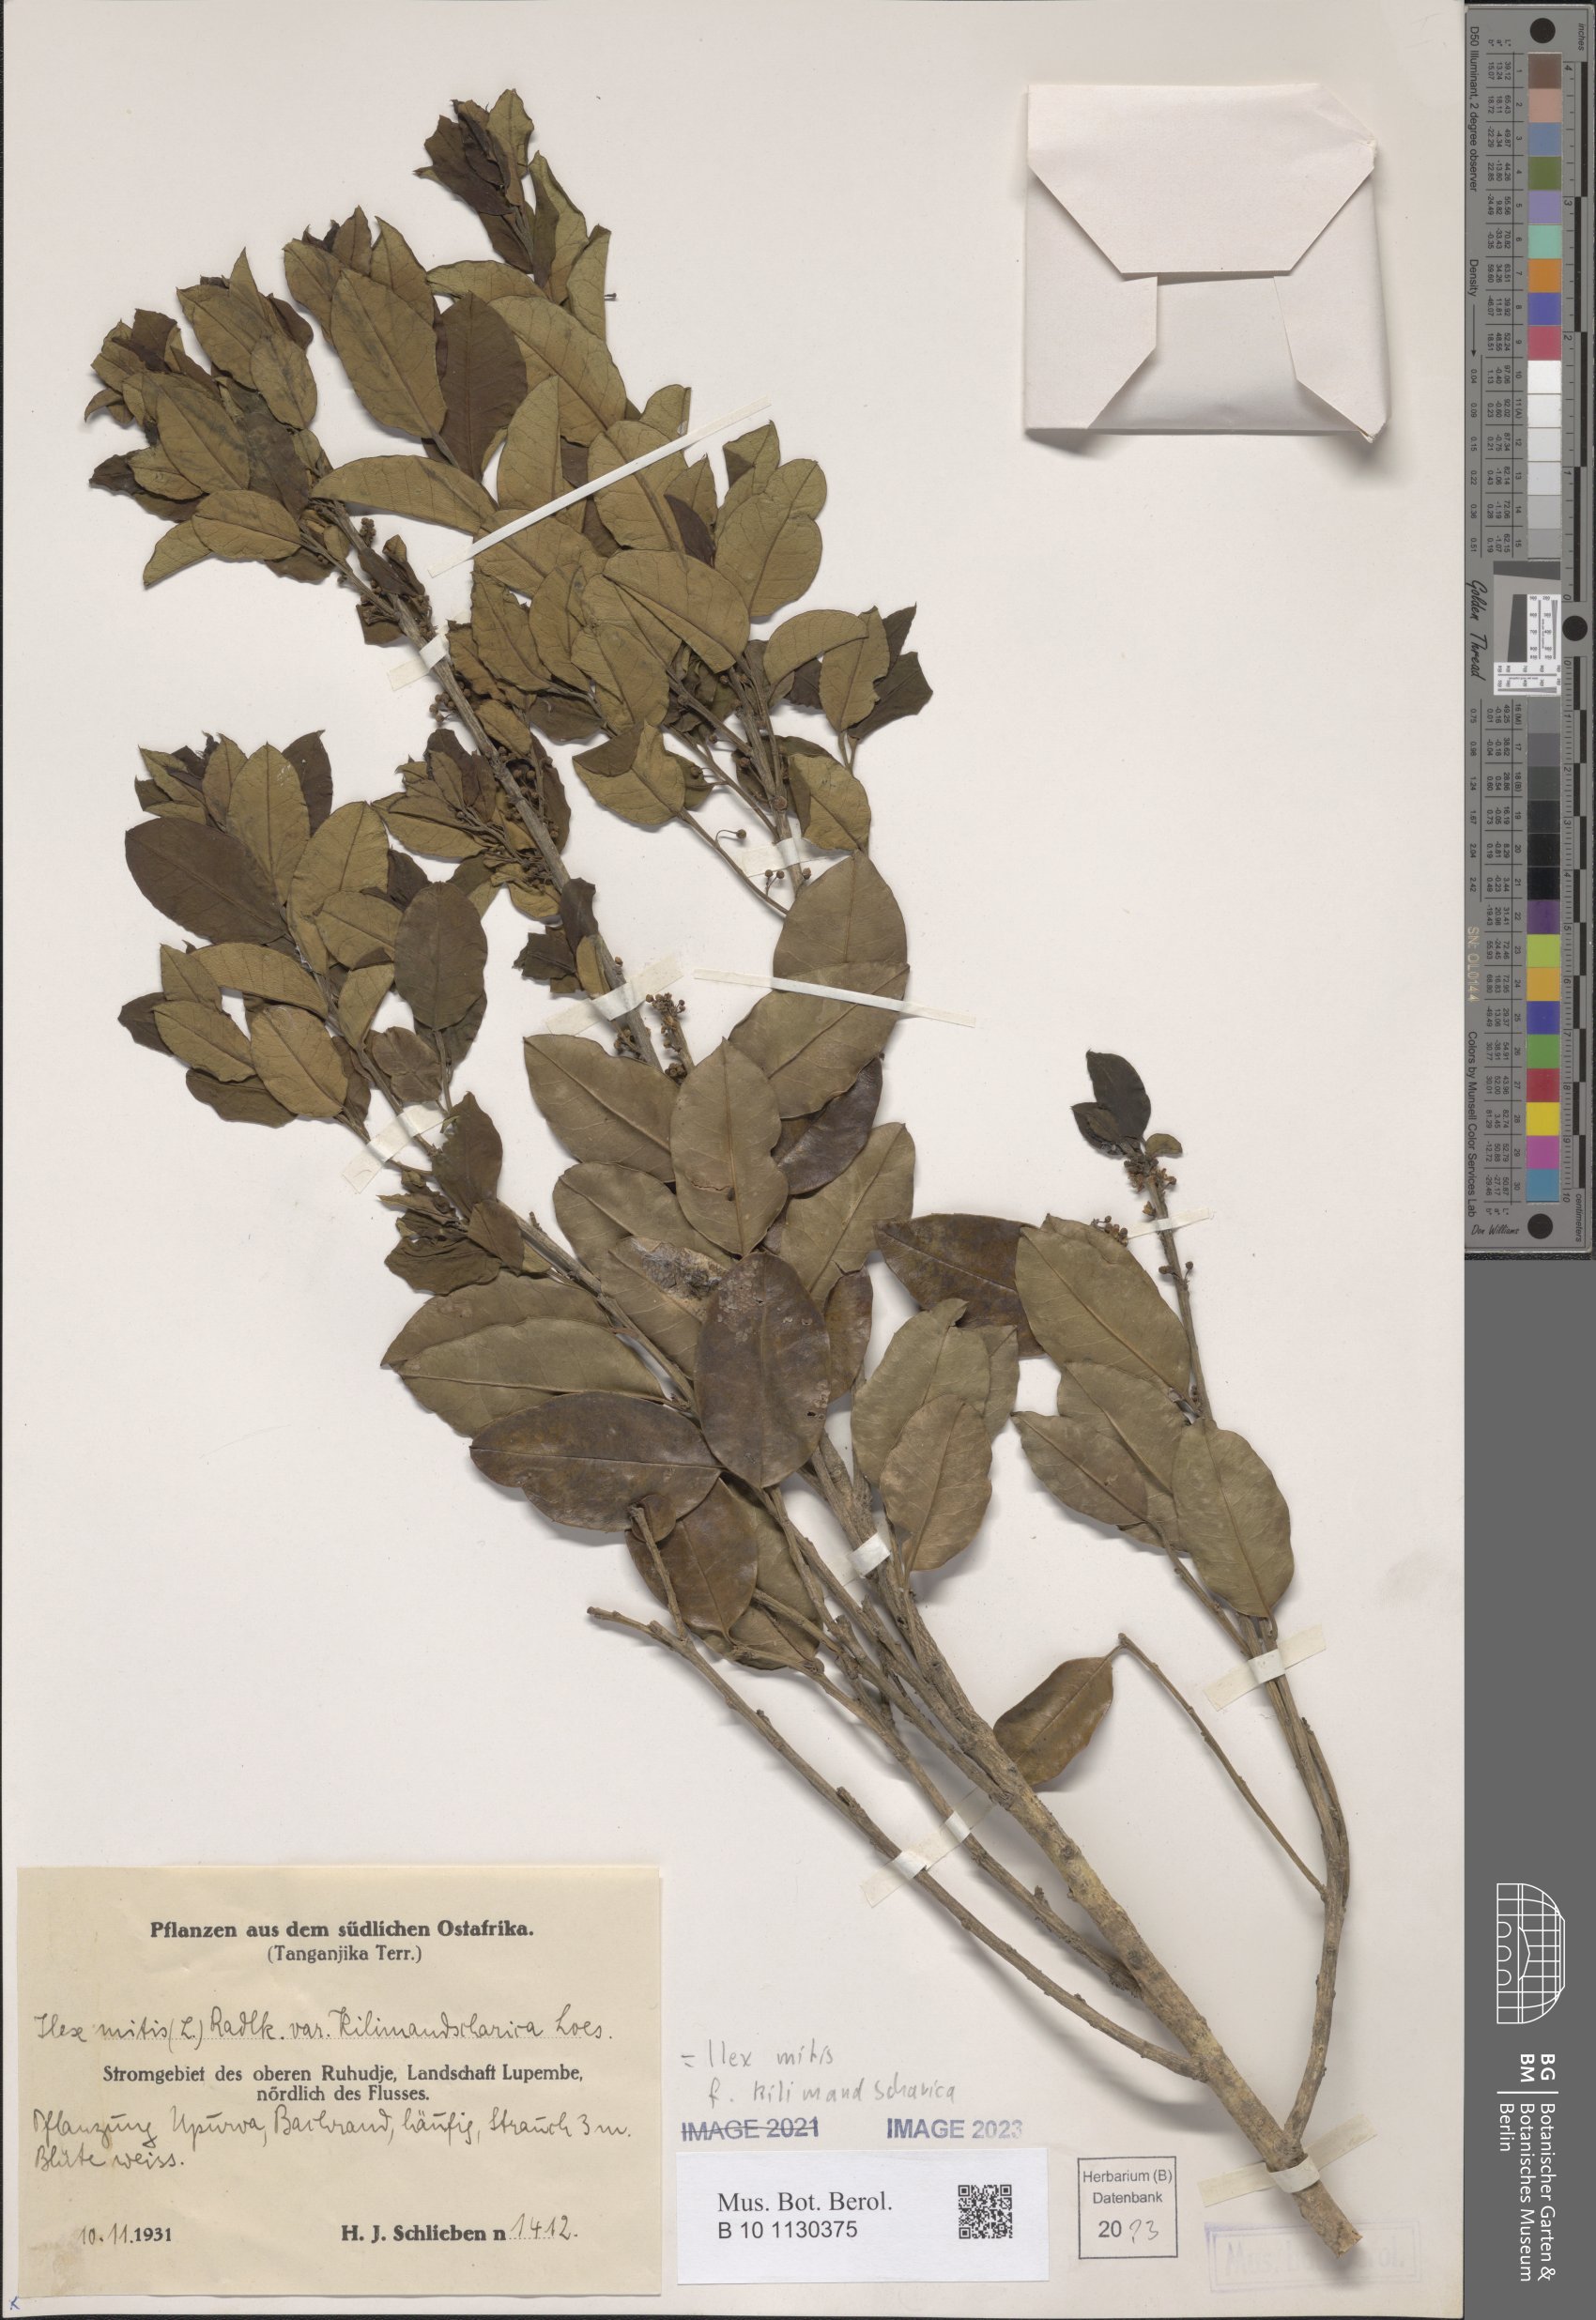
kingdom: Plantae
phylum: Tracheophyta
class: Magnoliopsida
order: Aquifoliales
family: Aquifoliaceae
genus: Ilex
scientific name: Ilex mitis
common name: African holly
